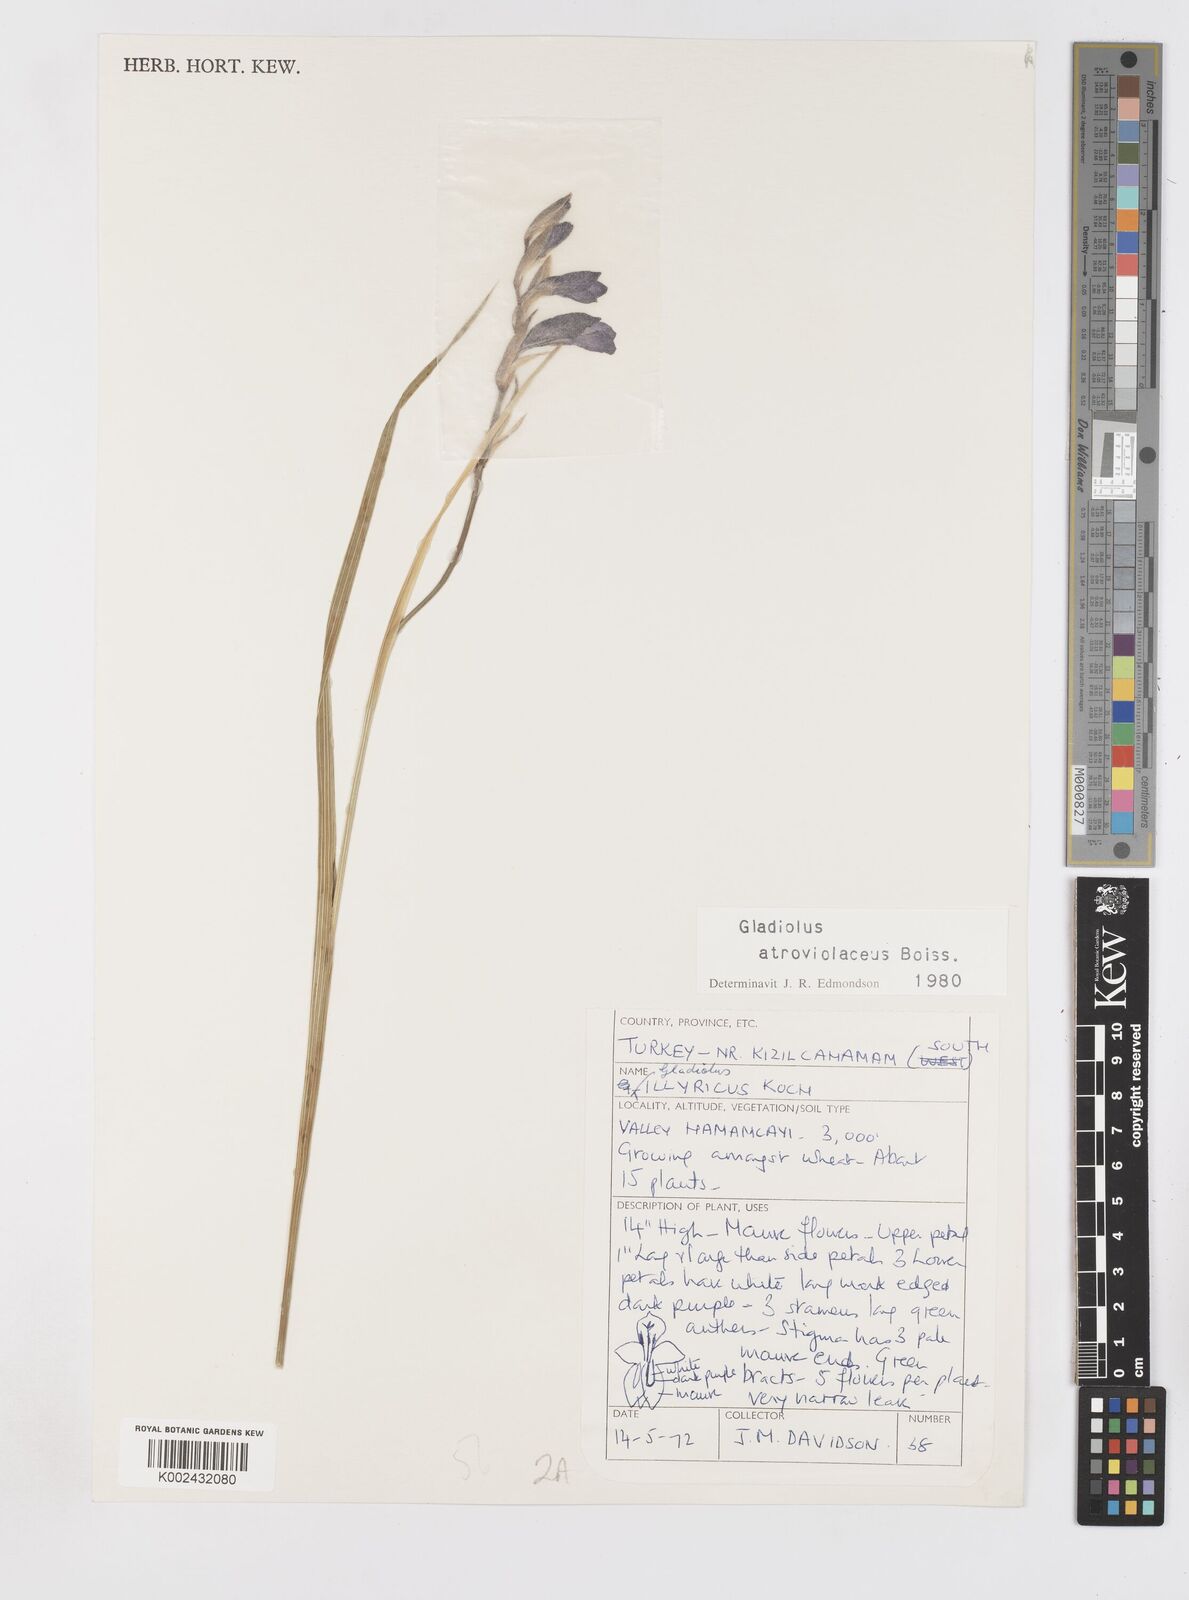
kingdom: Plantae
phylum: Tracheophyta
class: Liliopsida
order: Asparagales
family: Iridaceae
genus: Gladiolus
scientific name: Gladiolus atroviolaceus
